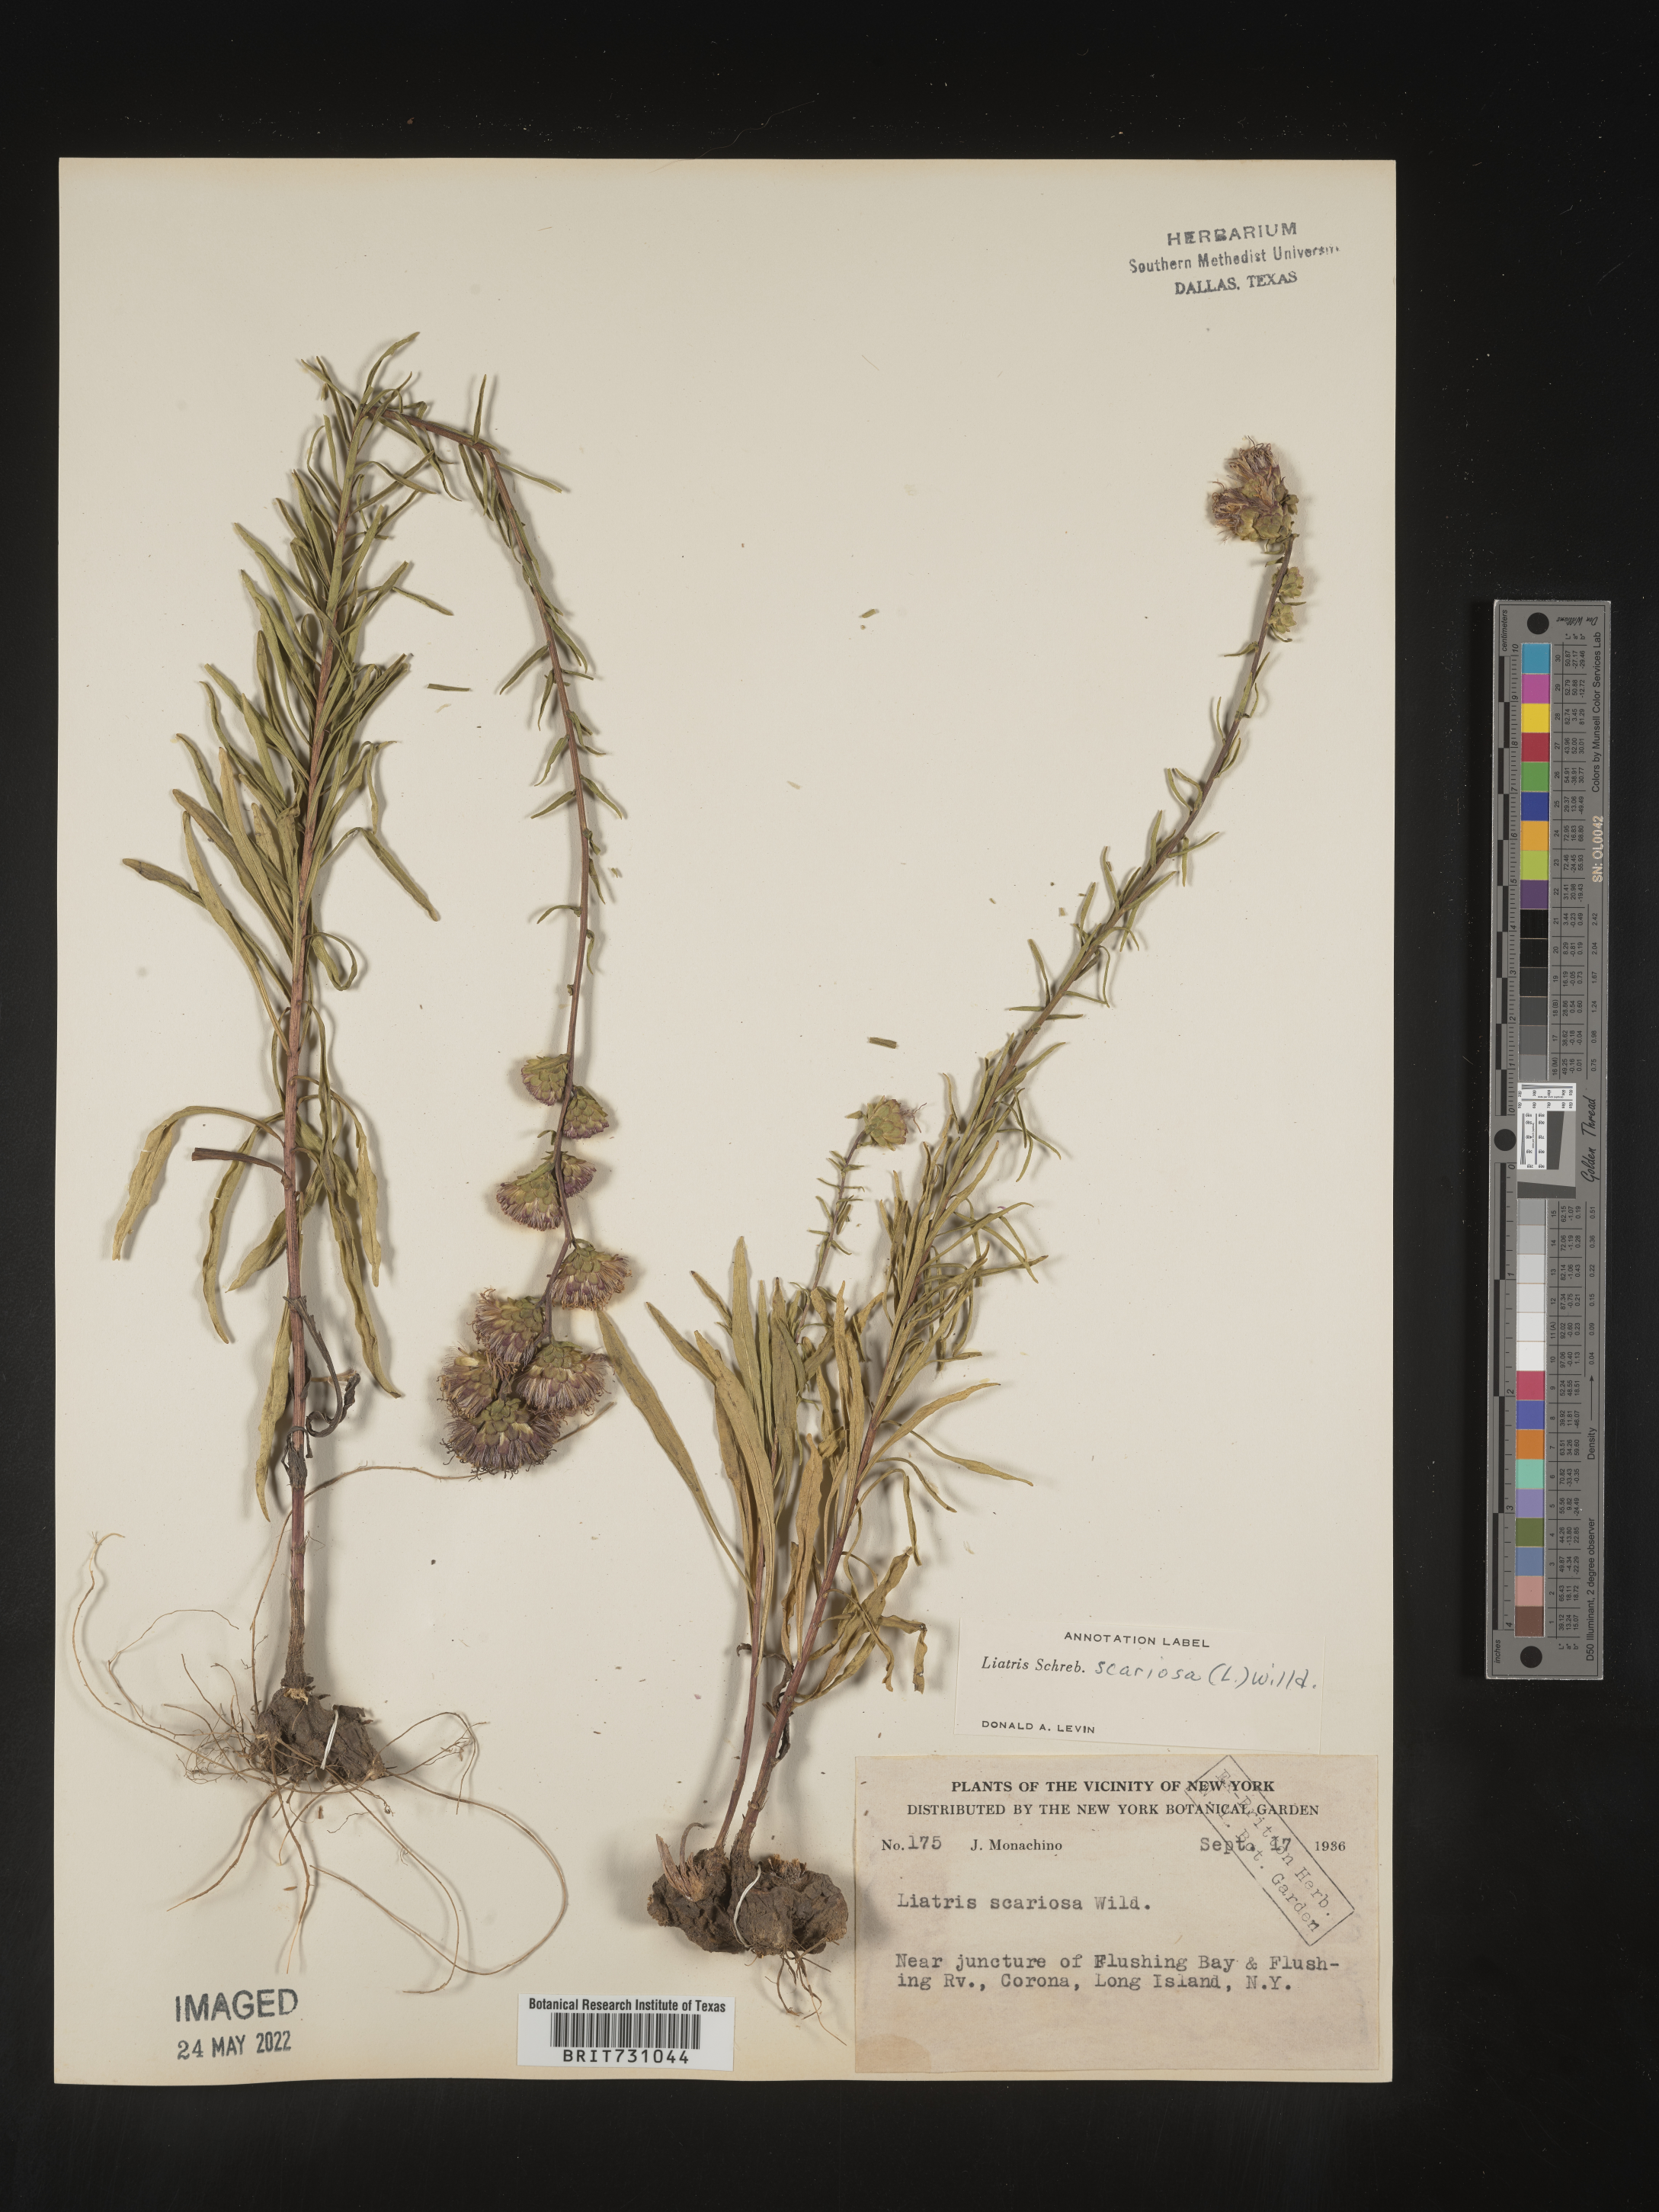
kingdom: Plantae
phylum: Tracheophyta
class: Magnoliopsida
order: Asterales
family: Asteraceae
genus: Liatris
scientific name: Liatris scariosa
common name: Northern gayfeather
